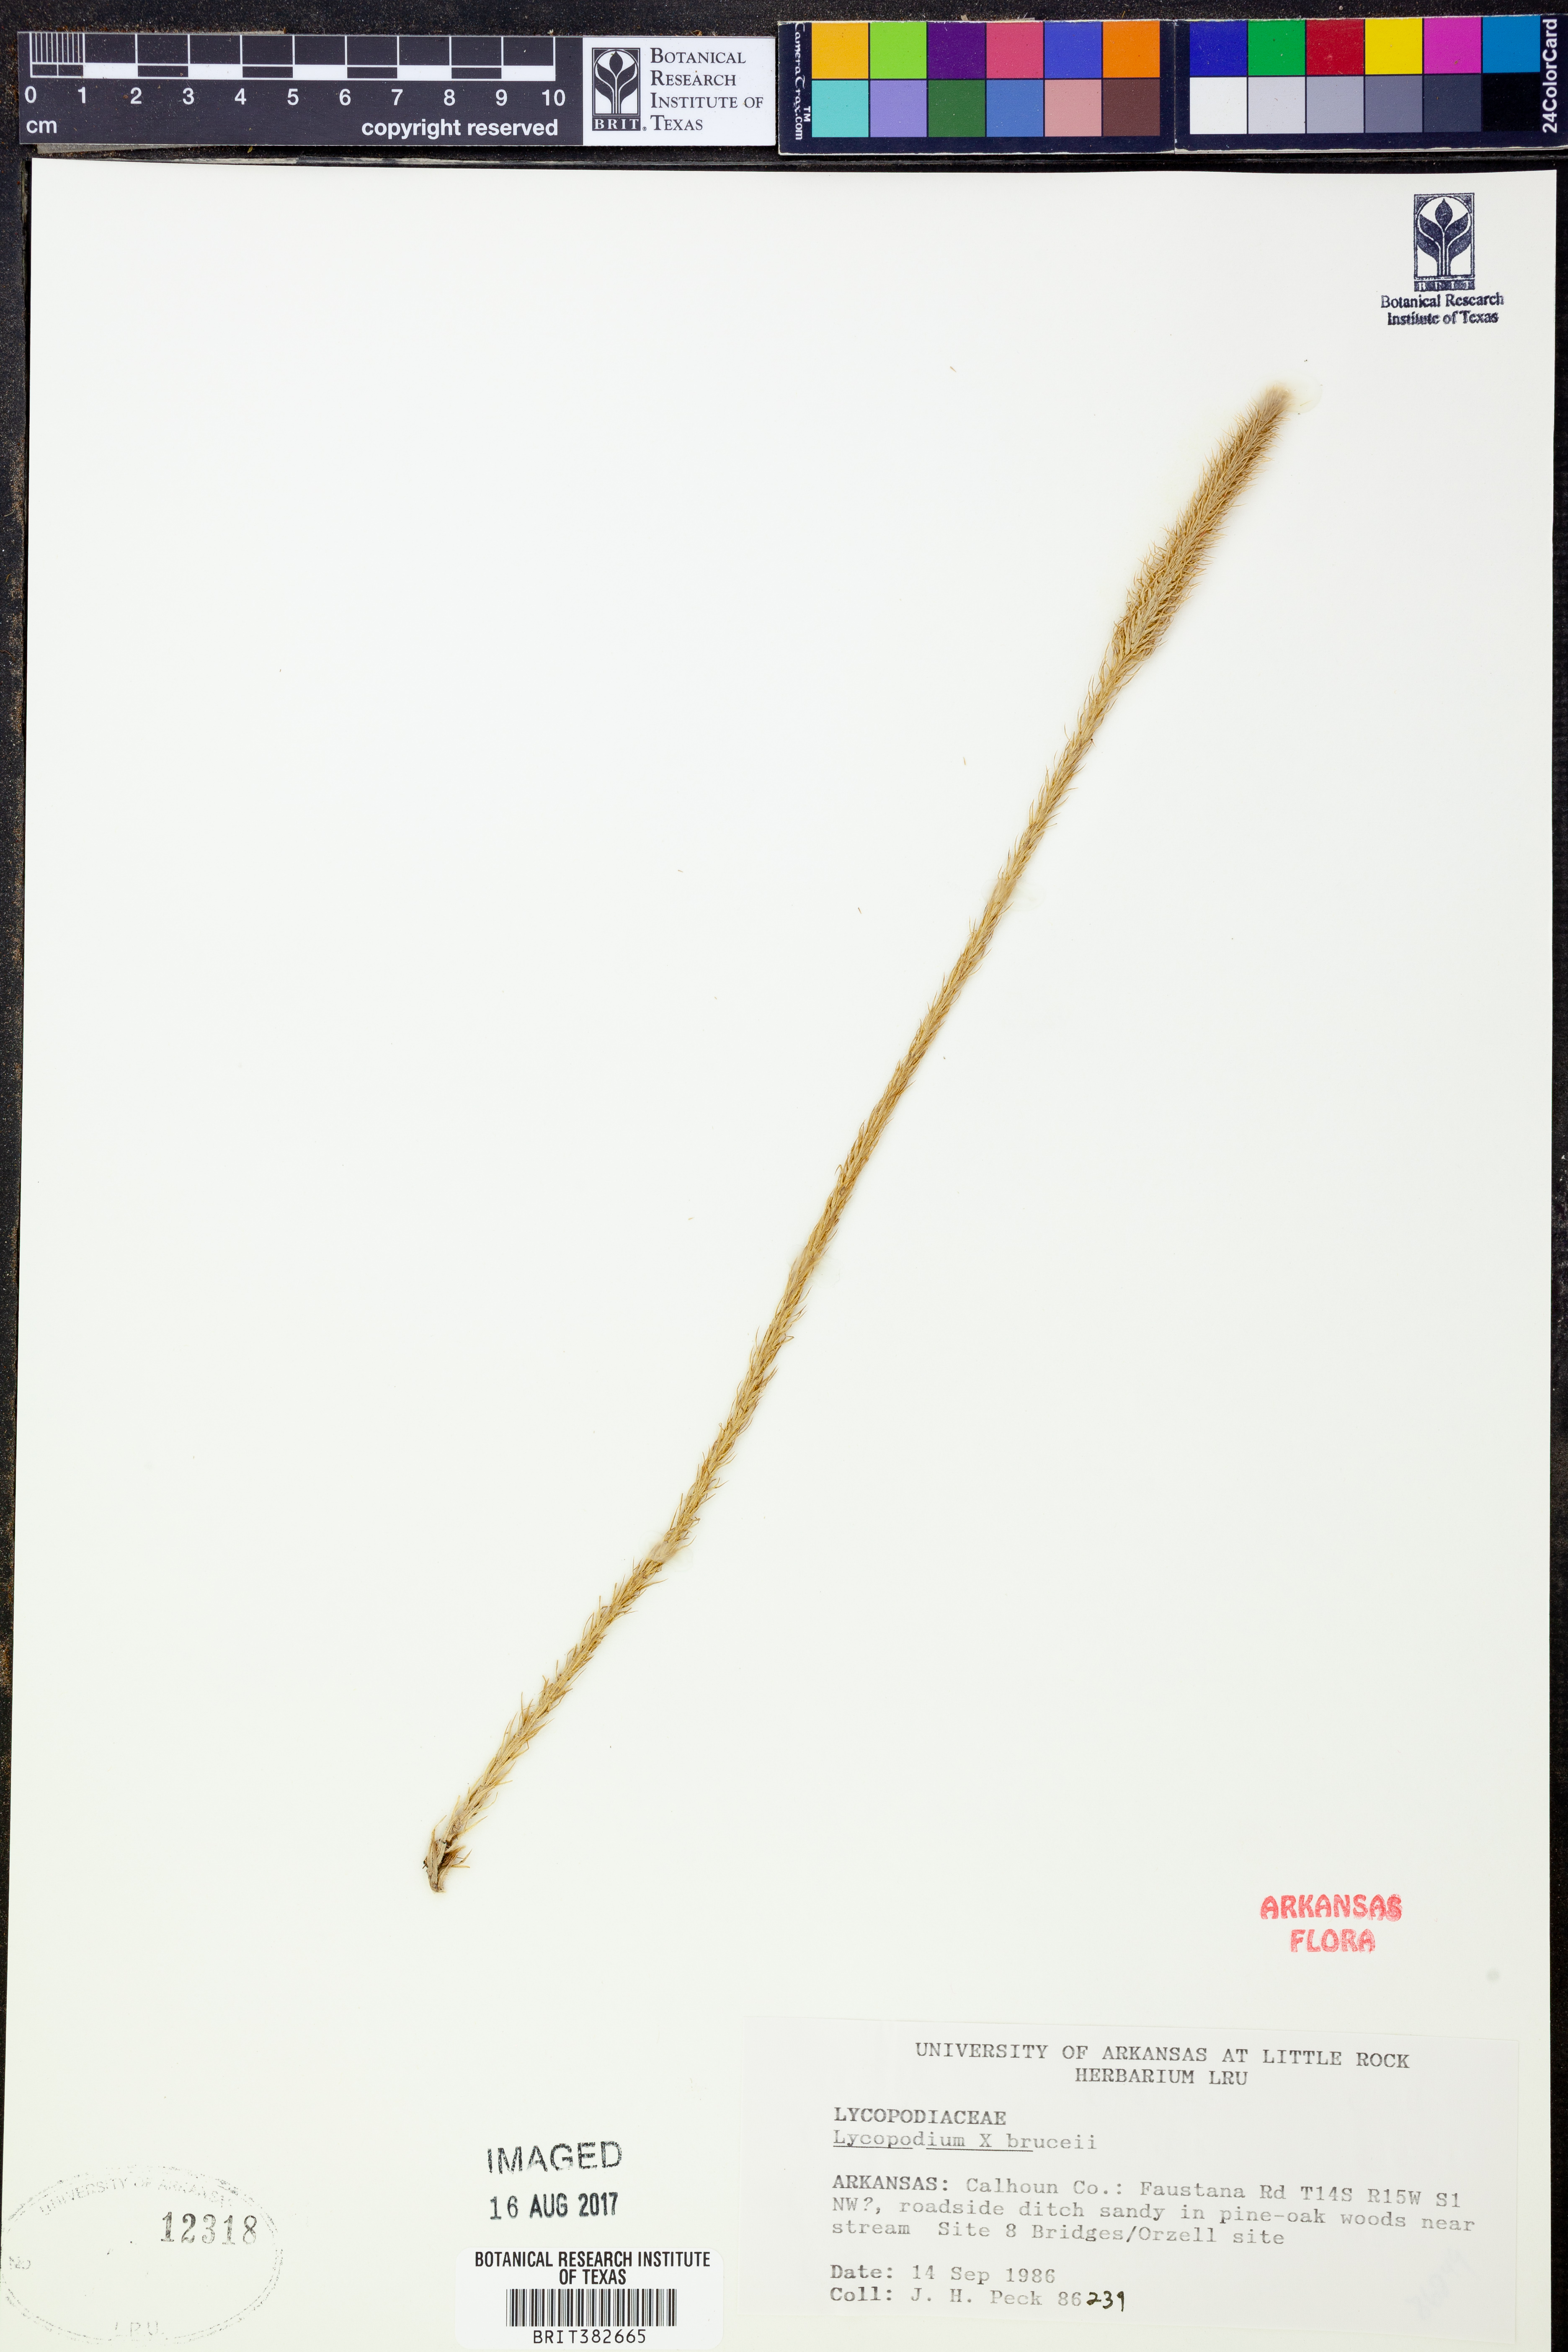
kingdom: Plantae
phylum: Tracheophyta
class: Lycopodiopsida
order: Lycopodiales
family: Lycopodiaceae
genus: Lycopodiella
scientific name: Lycopodiella brucei
